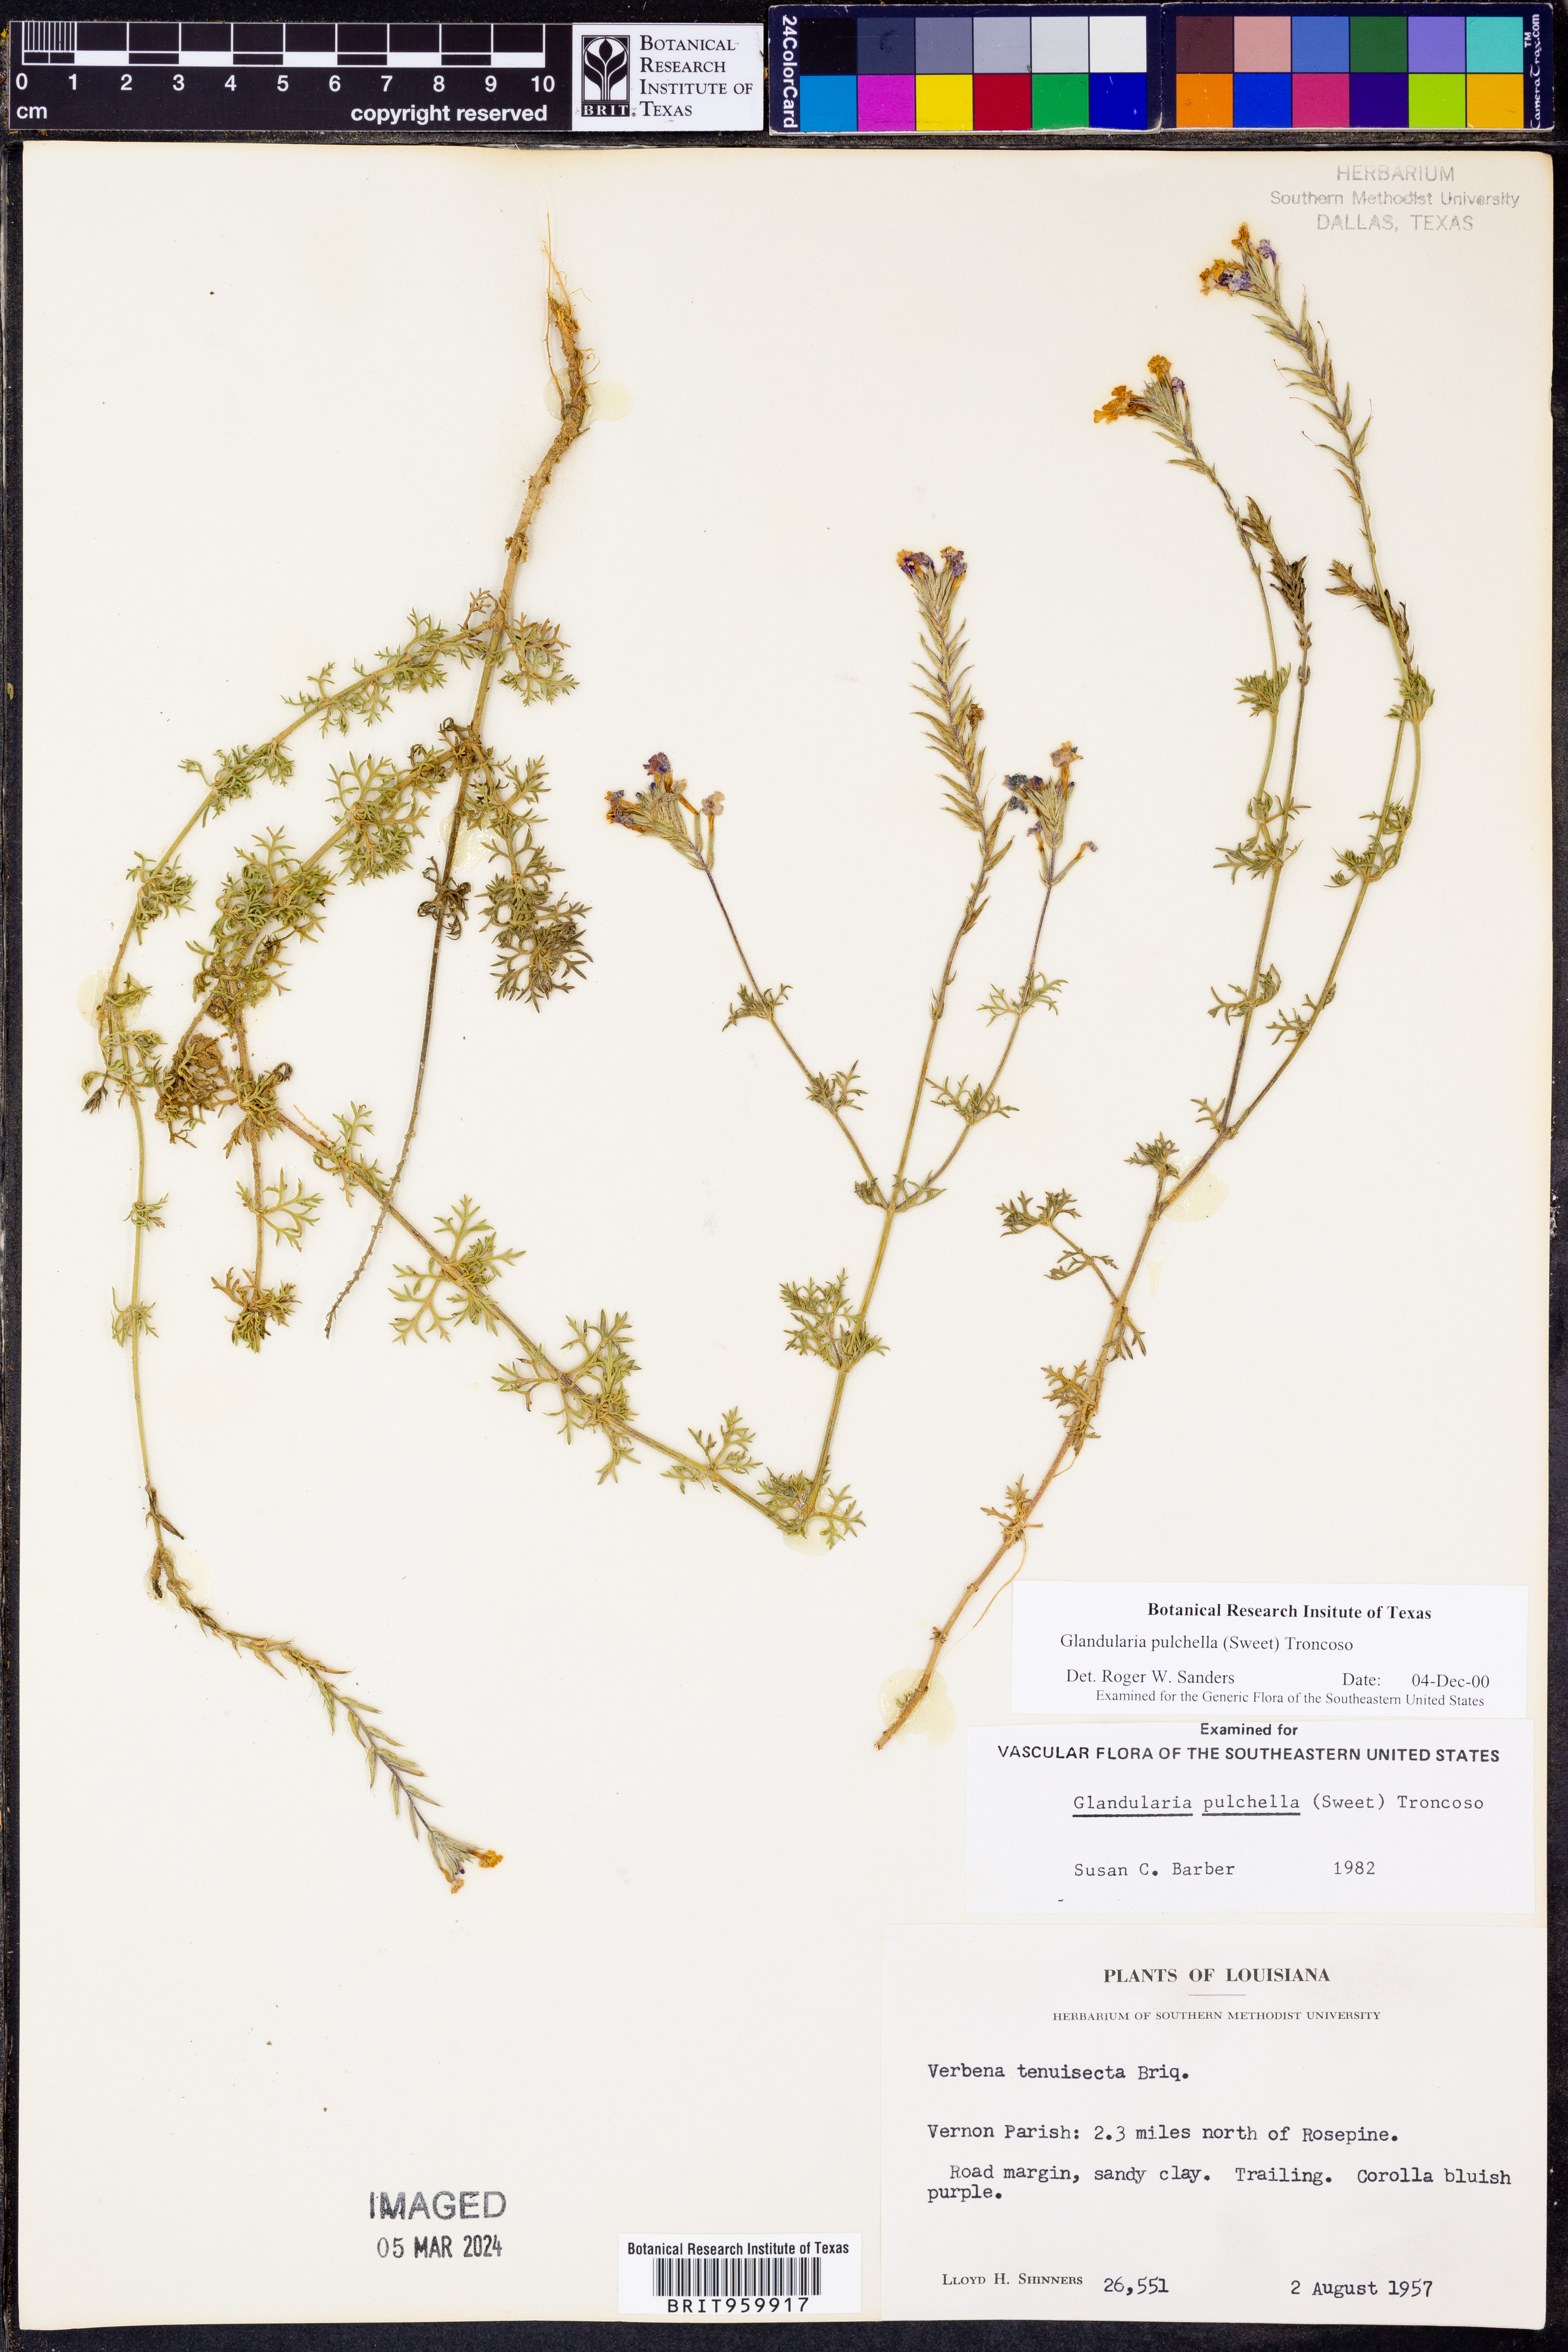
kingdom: Plantae
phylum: Tracheophyta
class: Magnoliopsida
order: Lamiales
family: Verbenaceae
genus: Verbena
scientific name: Verbena tenera
